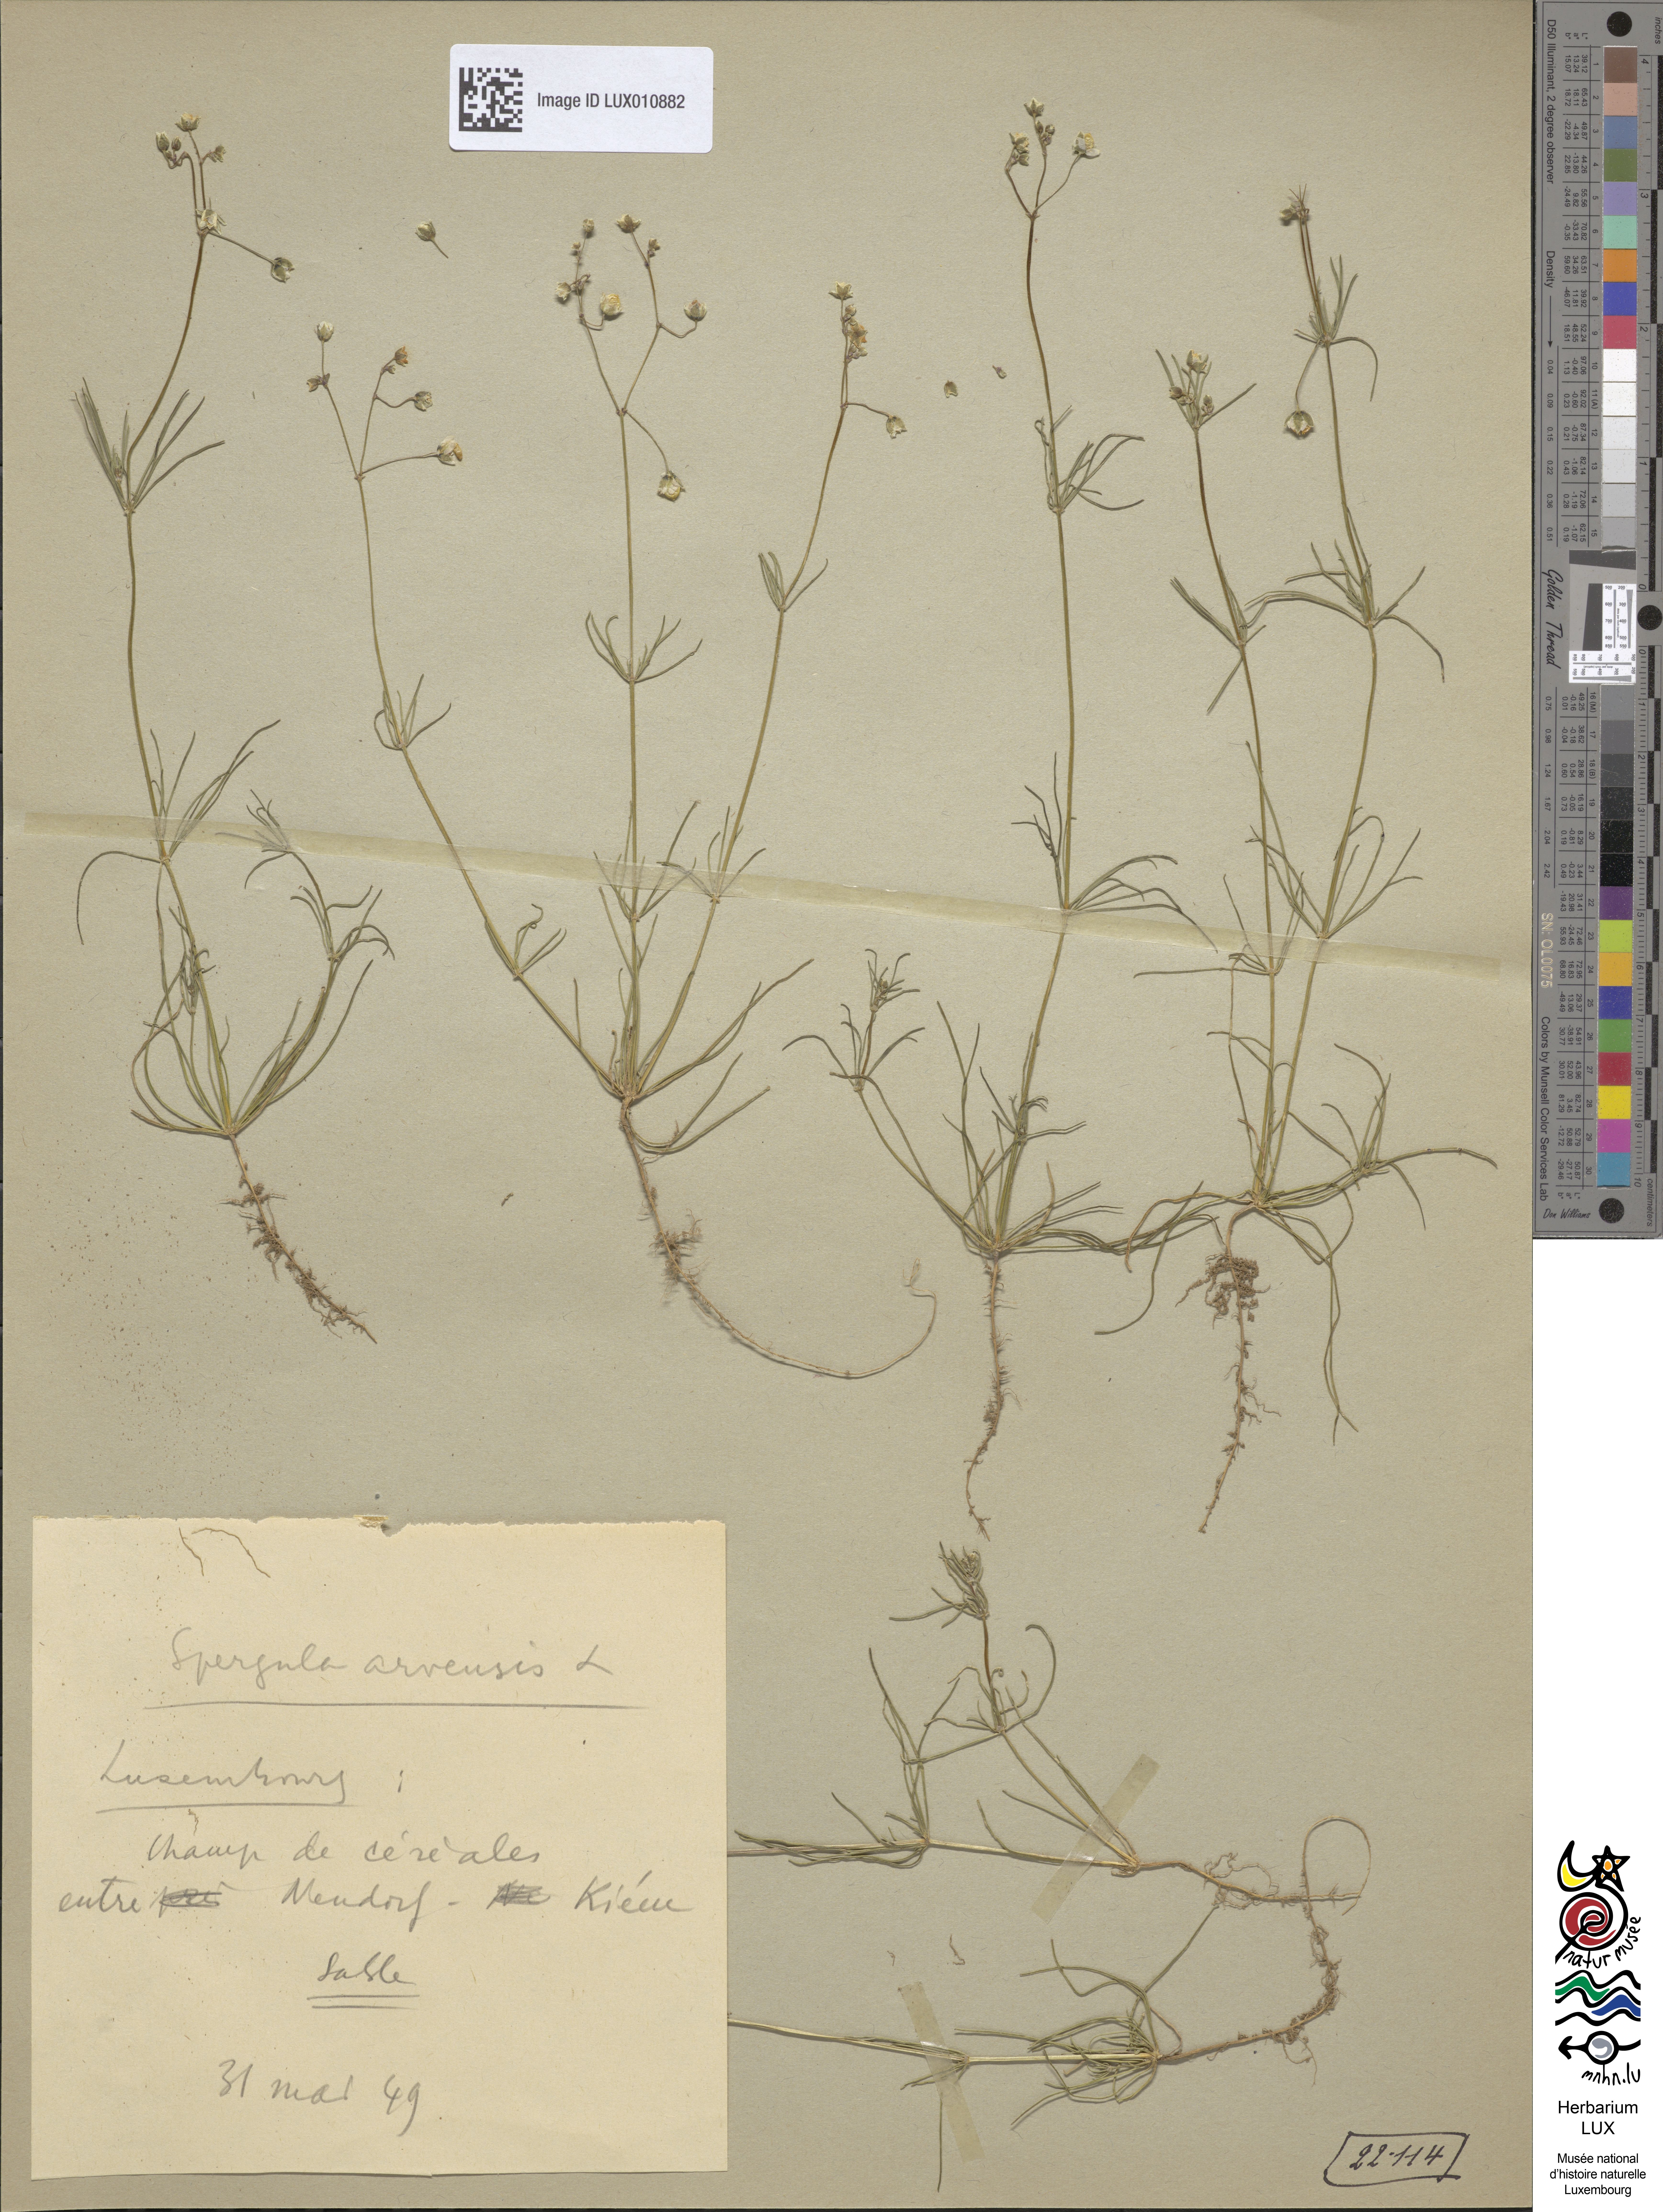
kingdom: Plantae
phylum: Tracheophyta
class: Magnoliopsida
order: Caryophyllales
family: Caryophyllaceae
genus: Spergula
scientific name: Spergula arvensis
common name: Corn spurrey
